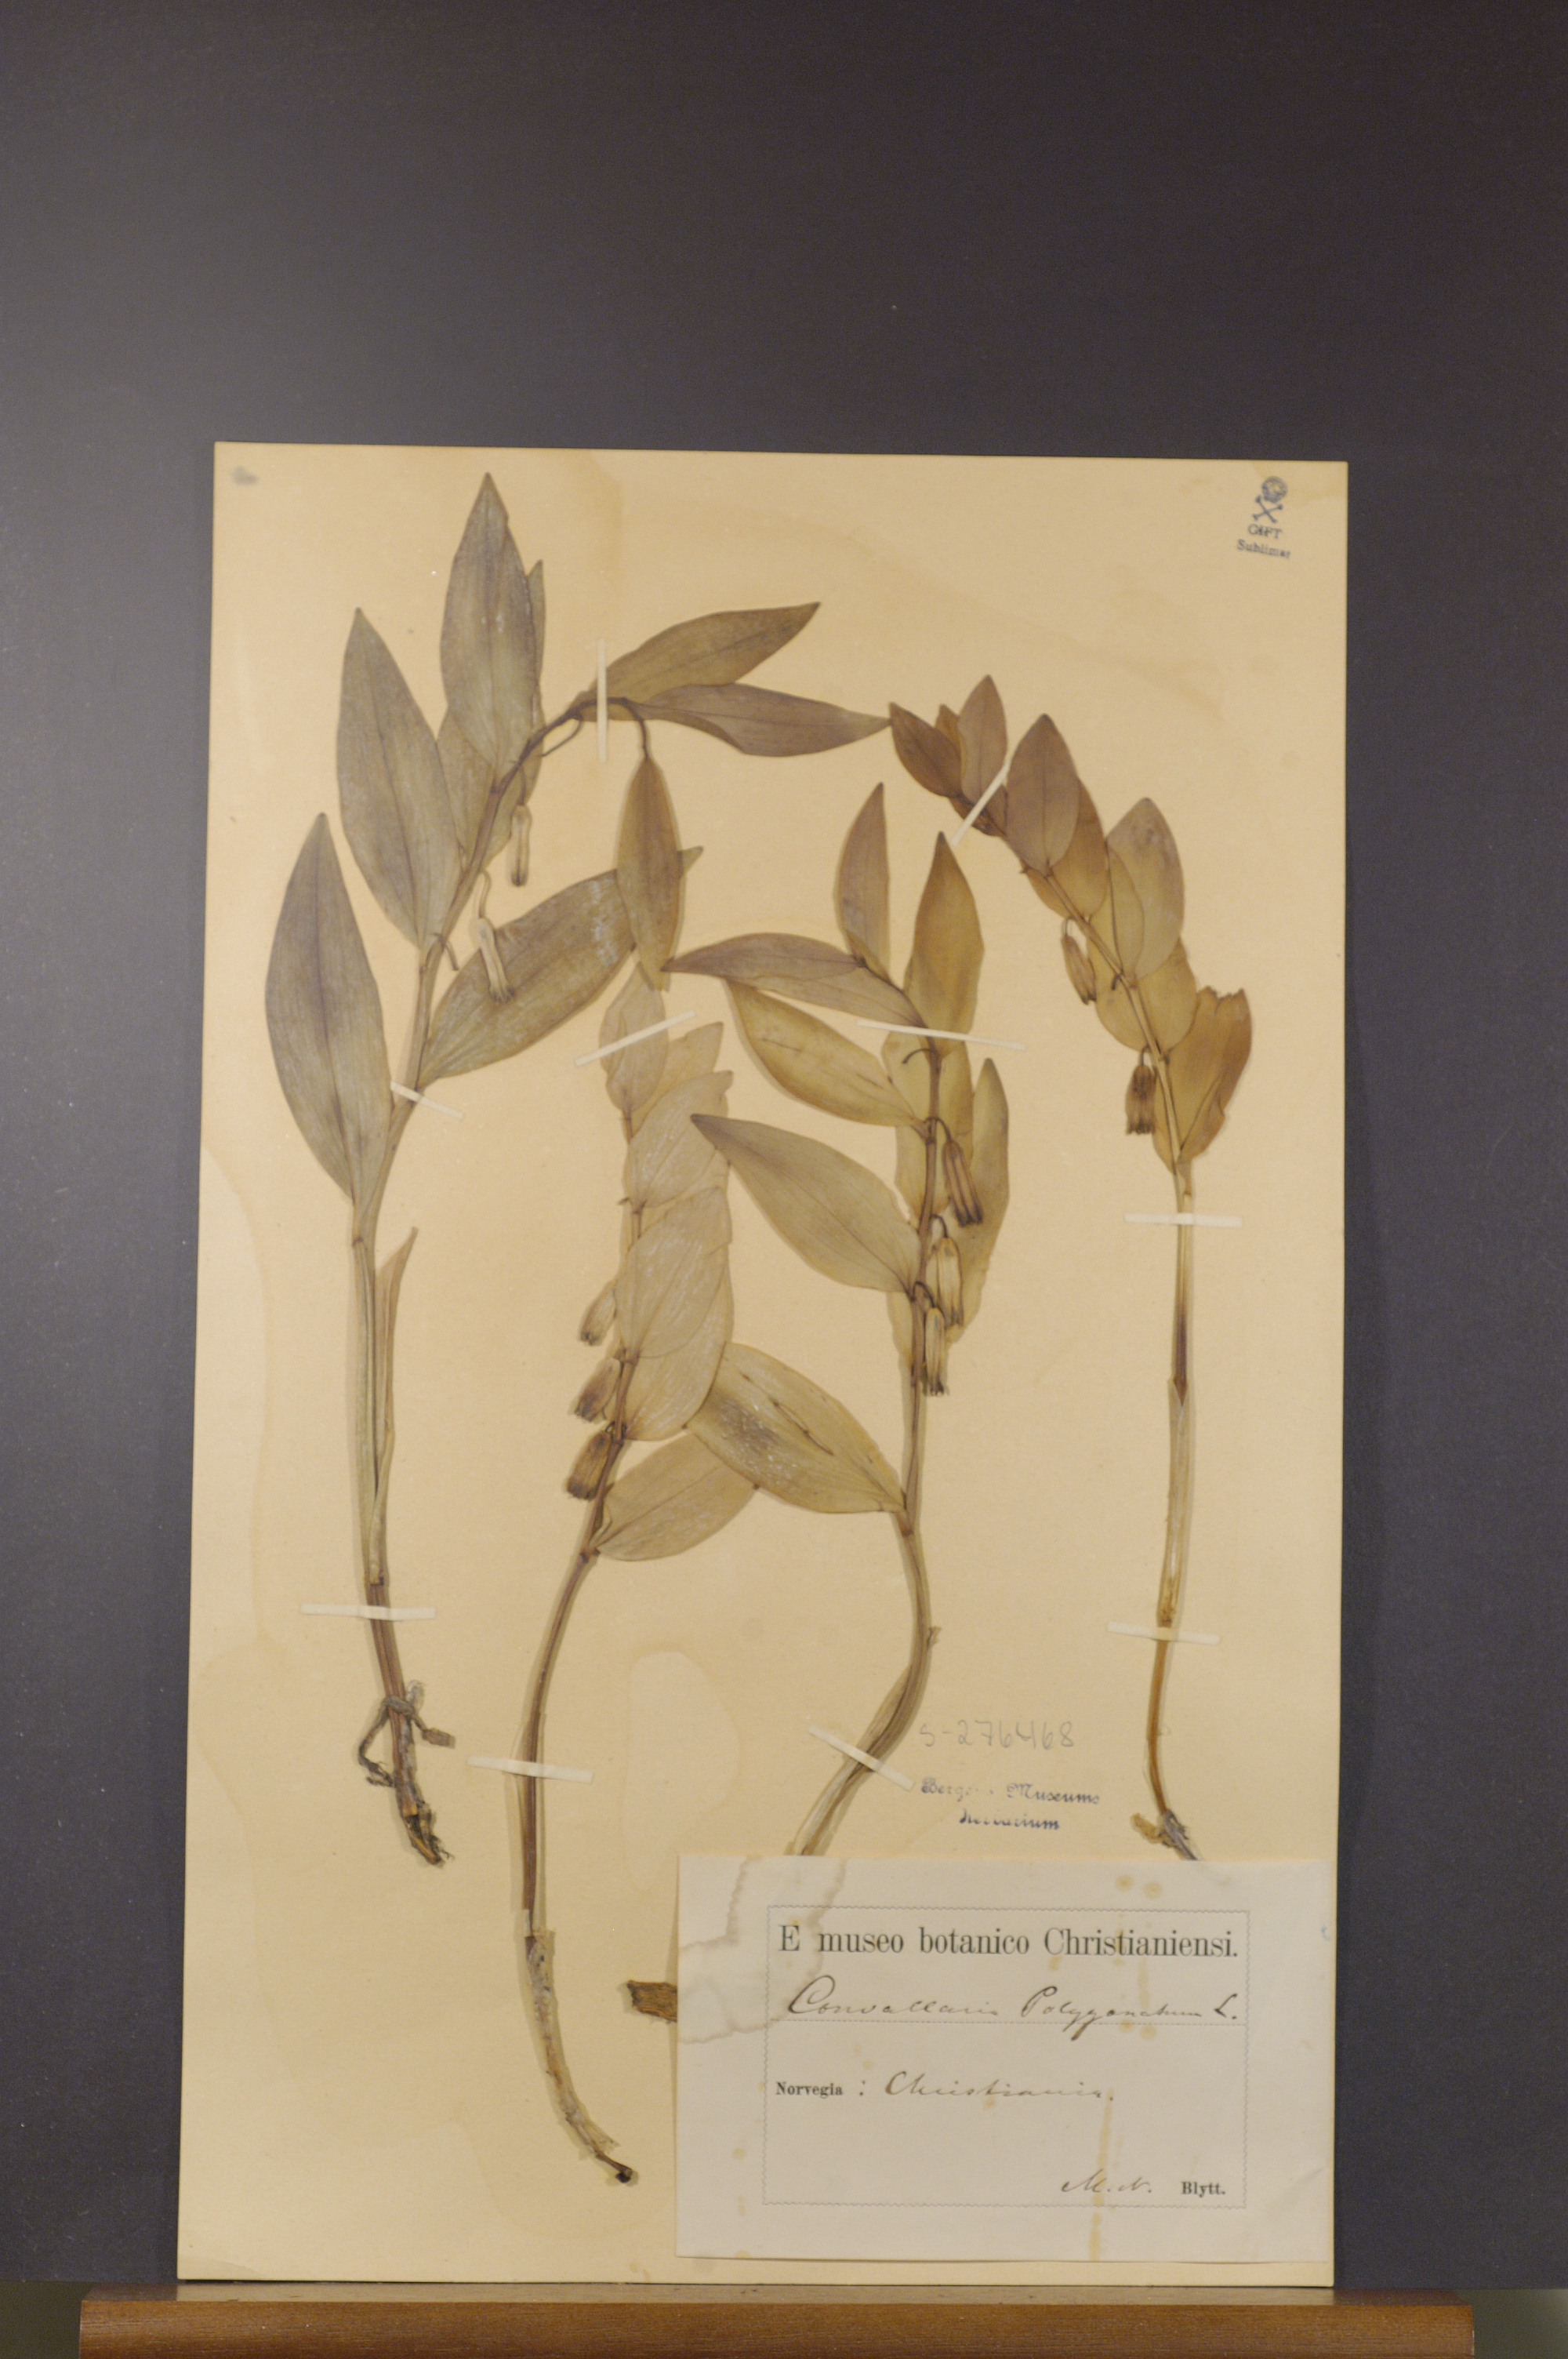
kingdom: Plantae
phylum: Tracheophyta
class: Liliopsida
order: Asparagales
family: Asparagaceae
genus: Polygonatum
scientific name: Polygonatum odoratum
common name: Angular solomon's-seal
